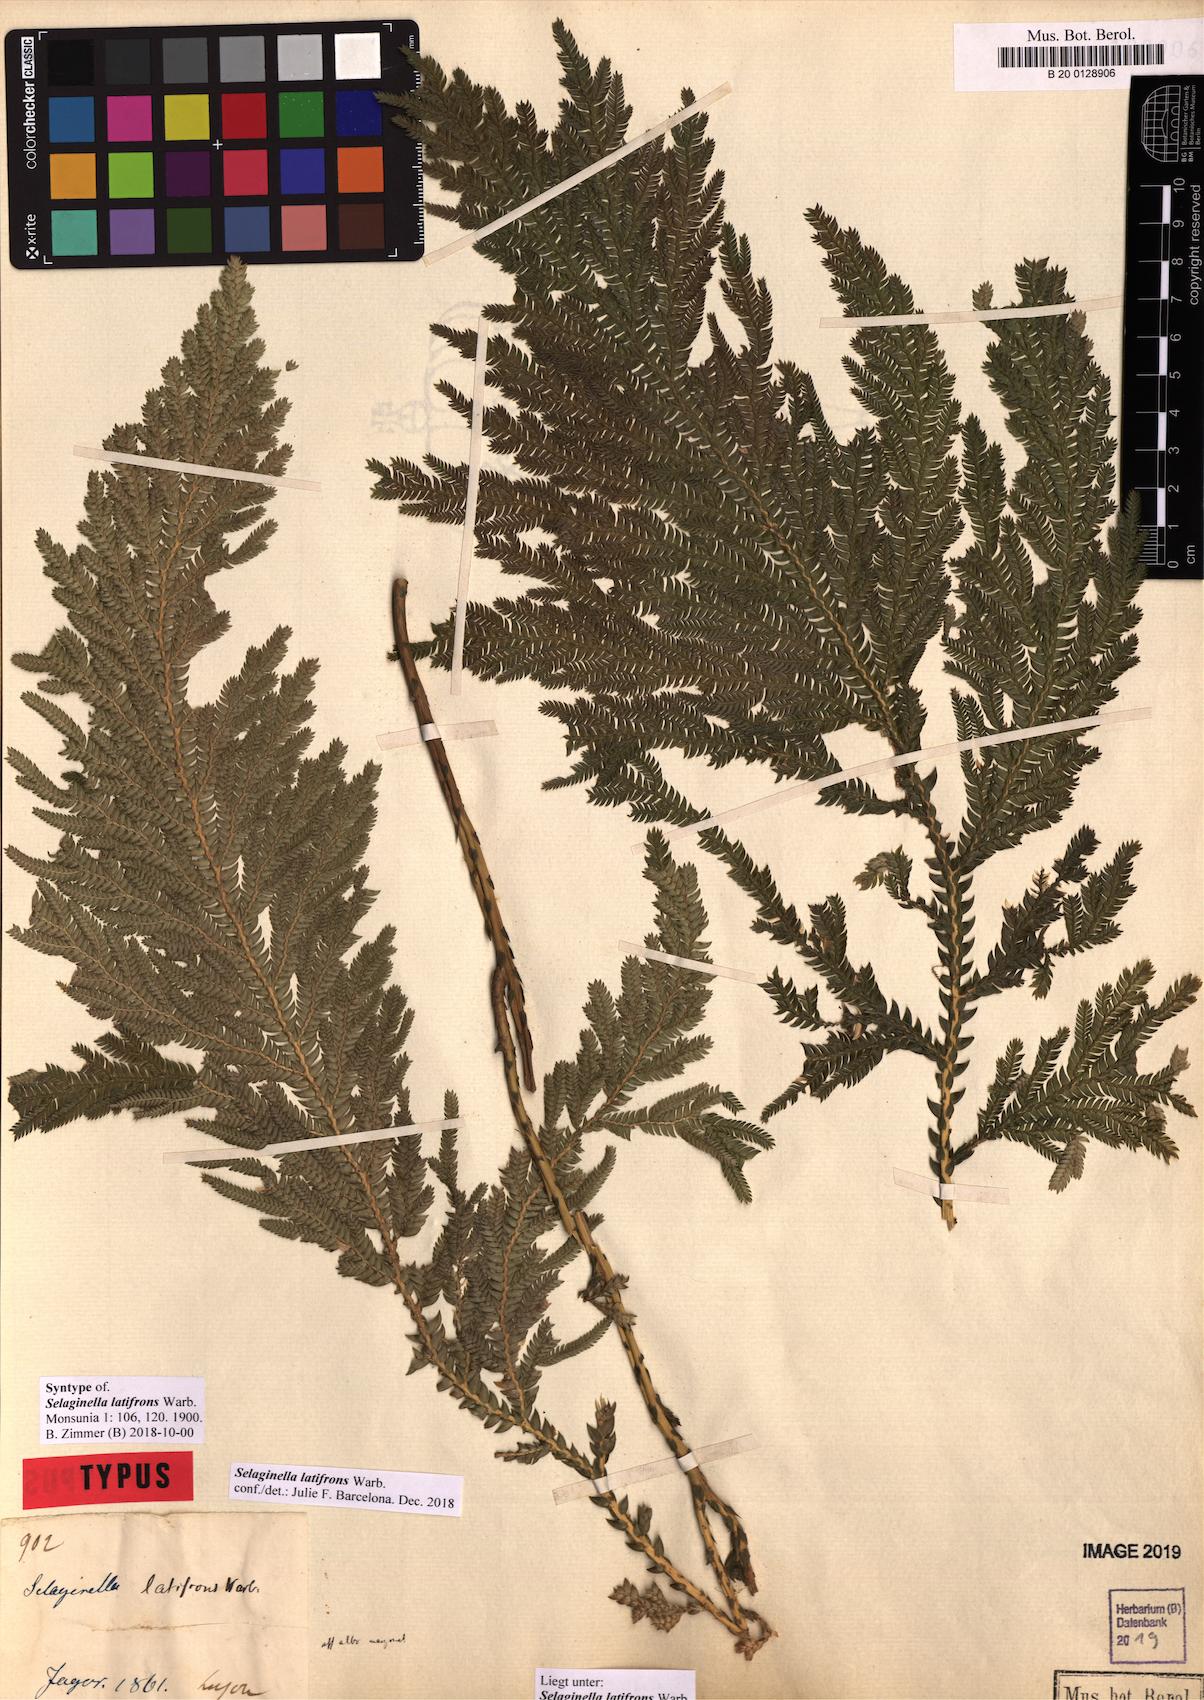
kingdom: Plantae
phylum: Tracheophyta
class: Lycopodiopsida
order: Selaginellales
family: Selaginellaceae
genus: Selaginella
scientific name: Selaginella copelandii
